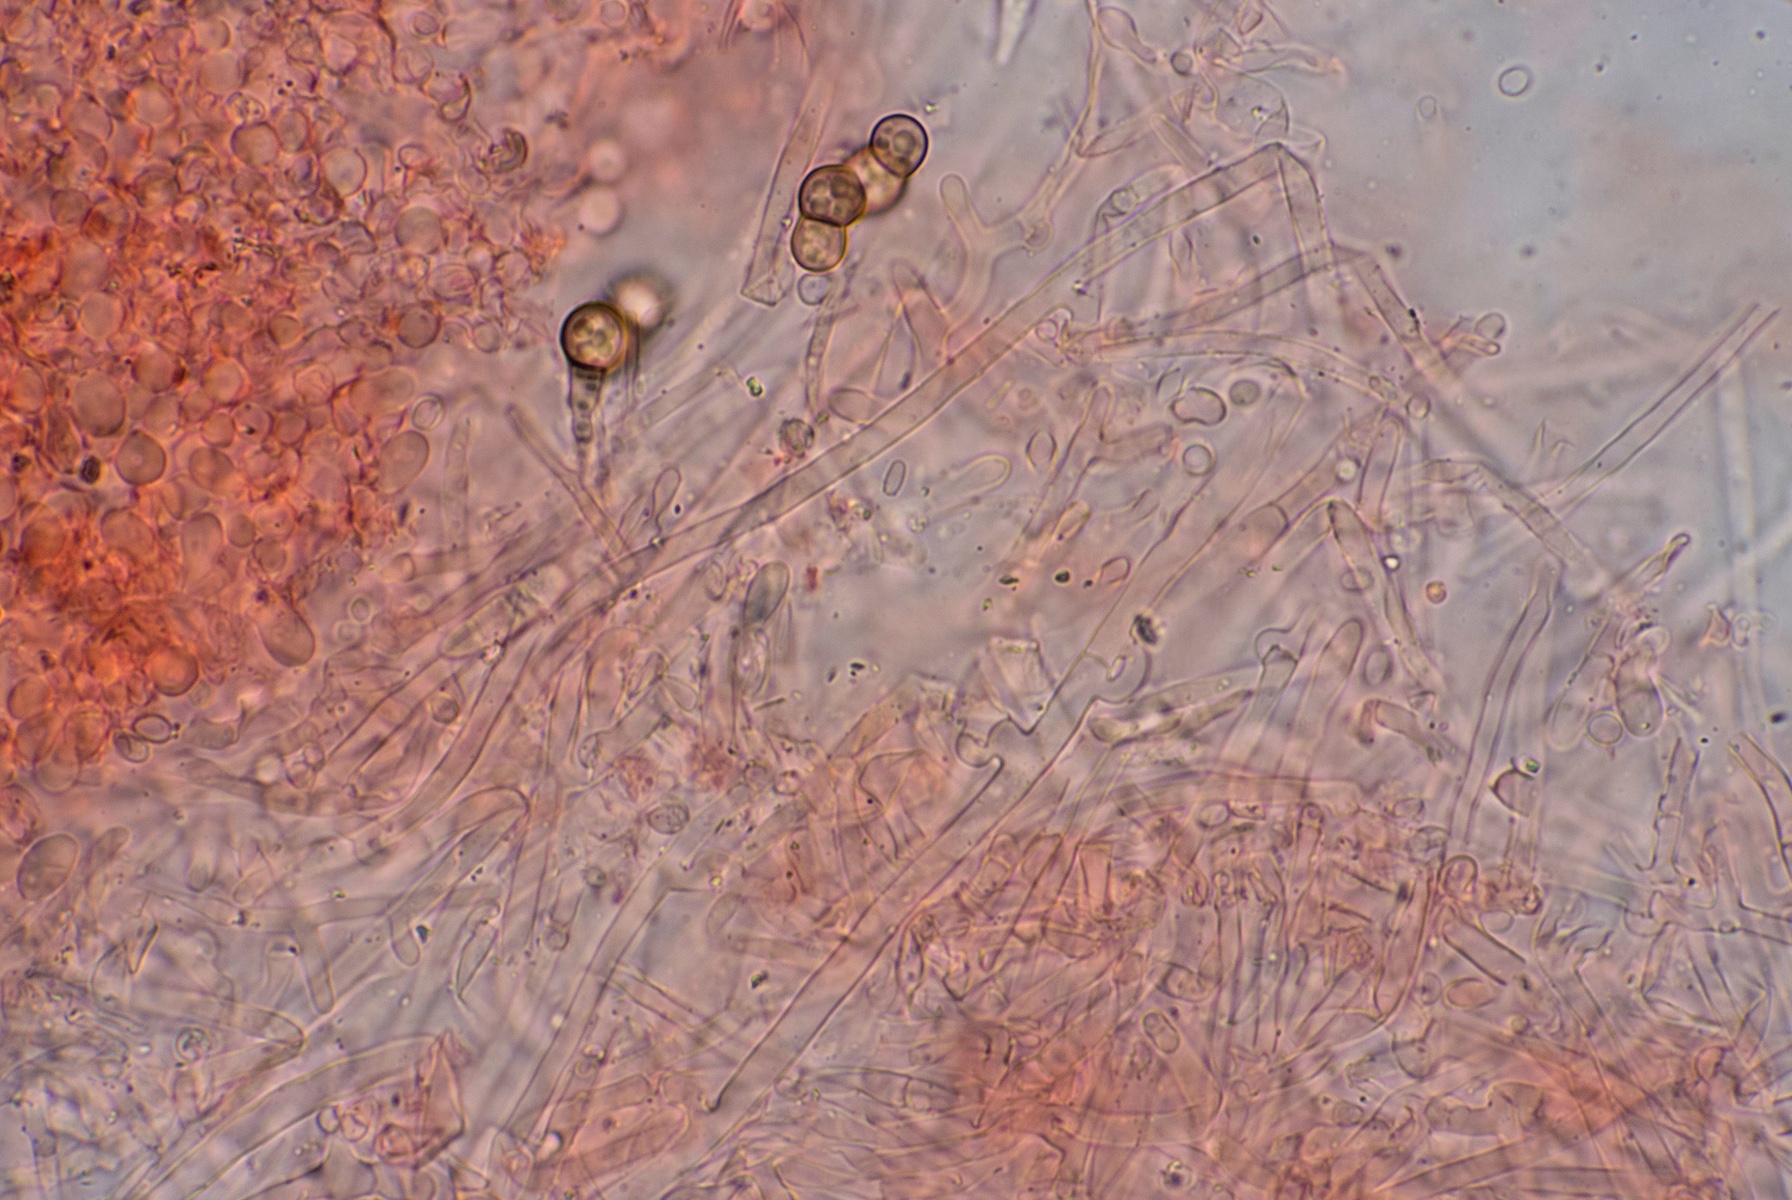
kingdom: Fungi
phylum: Basidiomycota
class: Agaricomycetes
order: Corticiales
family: Corticiaceae
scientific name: Corticiaceae
